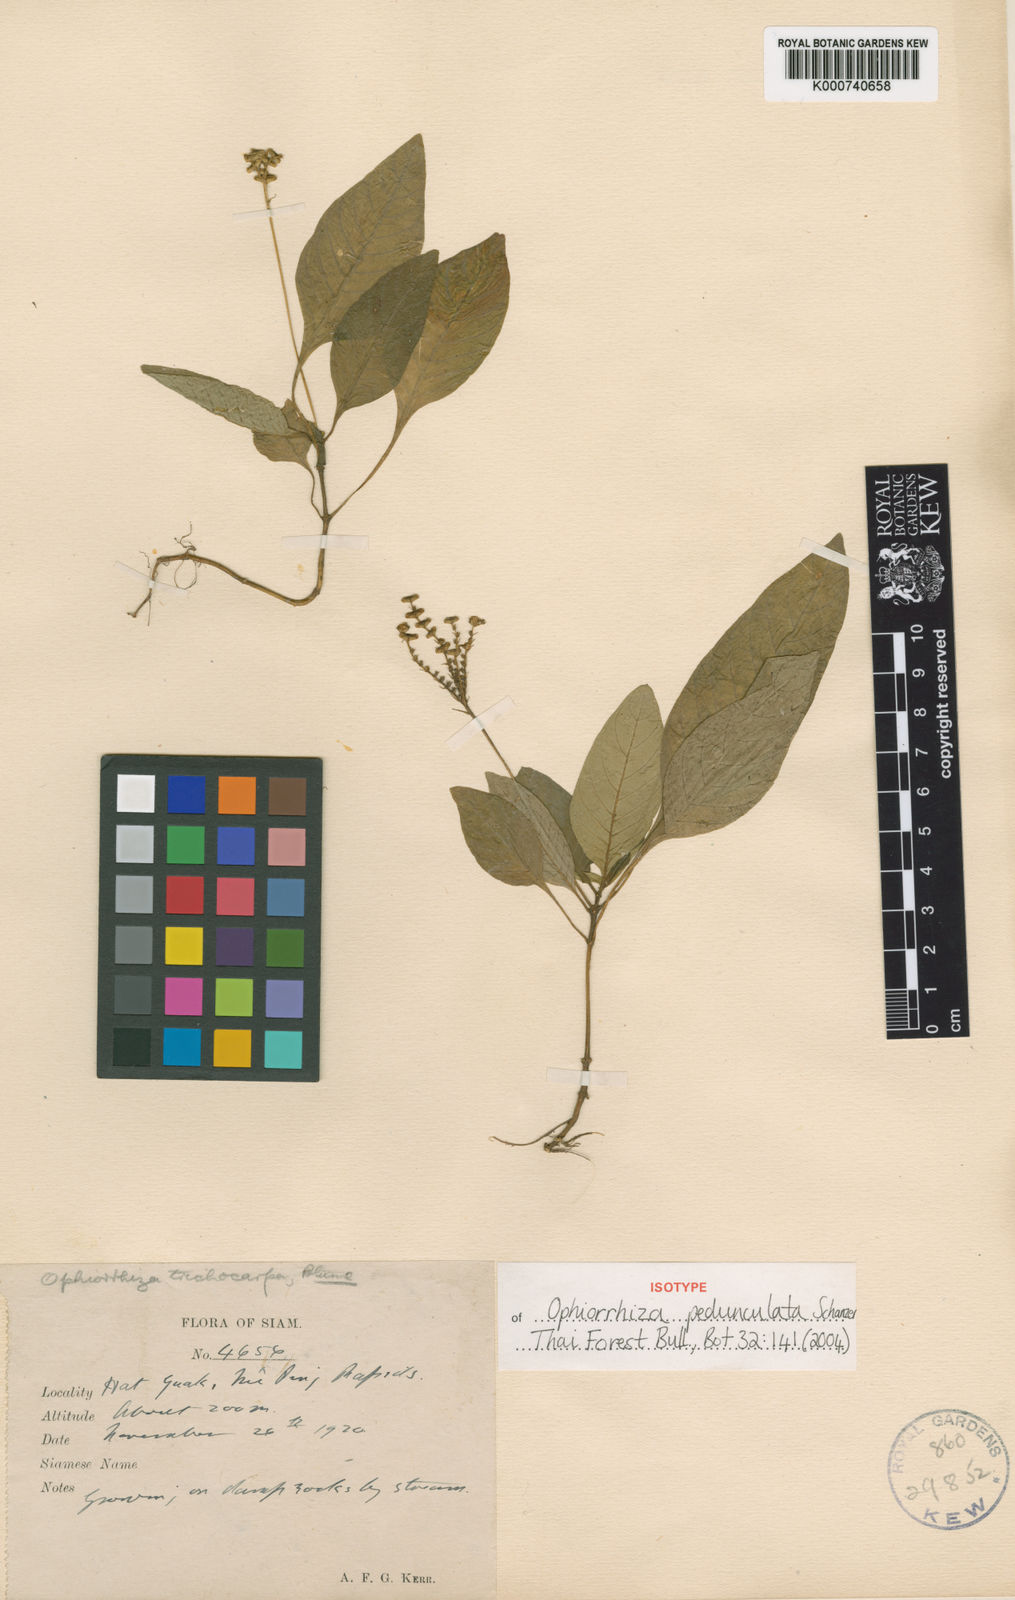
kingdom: Plantae
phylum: Tracheophyta
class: Magnoliopsida
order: Gentianales
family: Rubiaceae
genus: Ophiorrhiza
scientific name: Ophiorrhiza pedunculata
